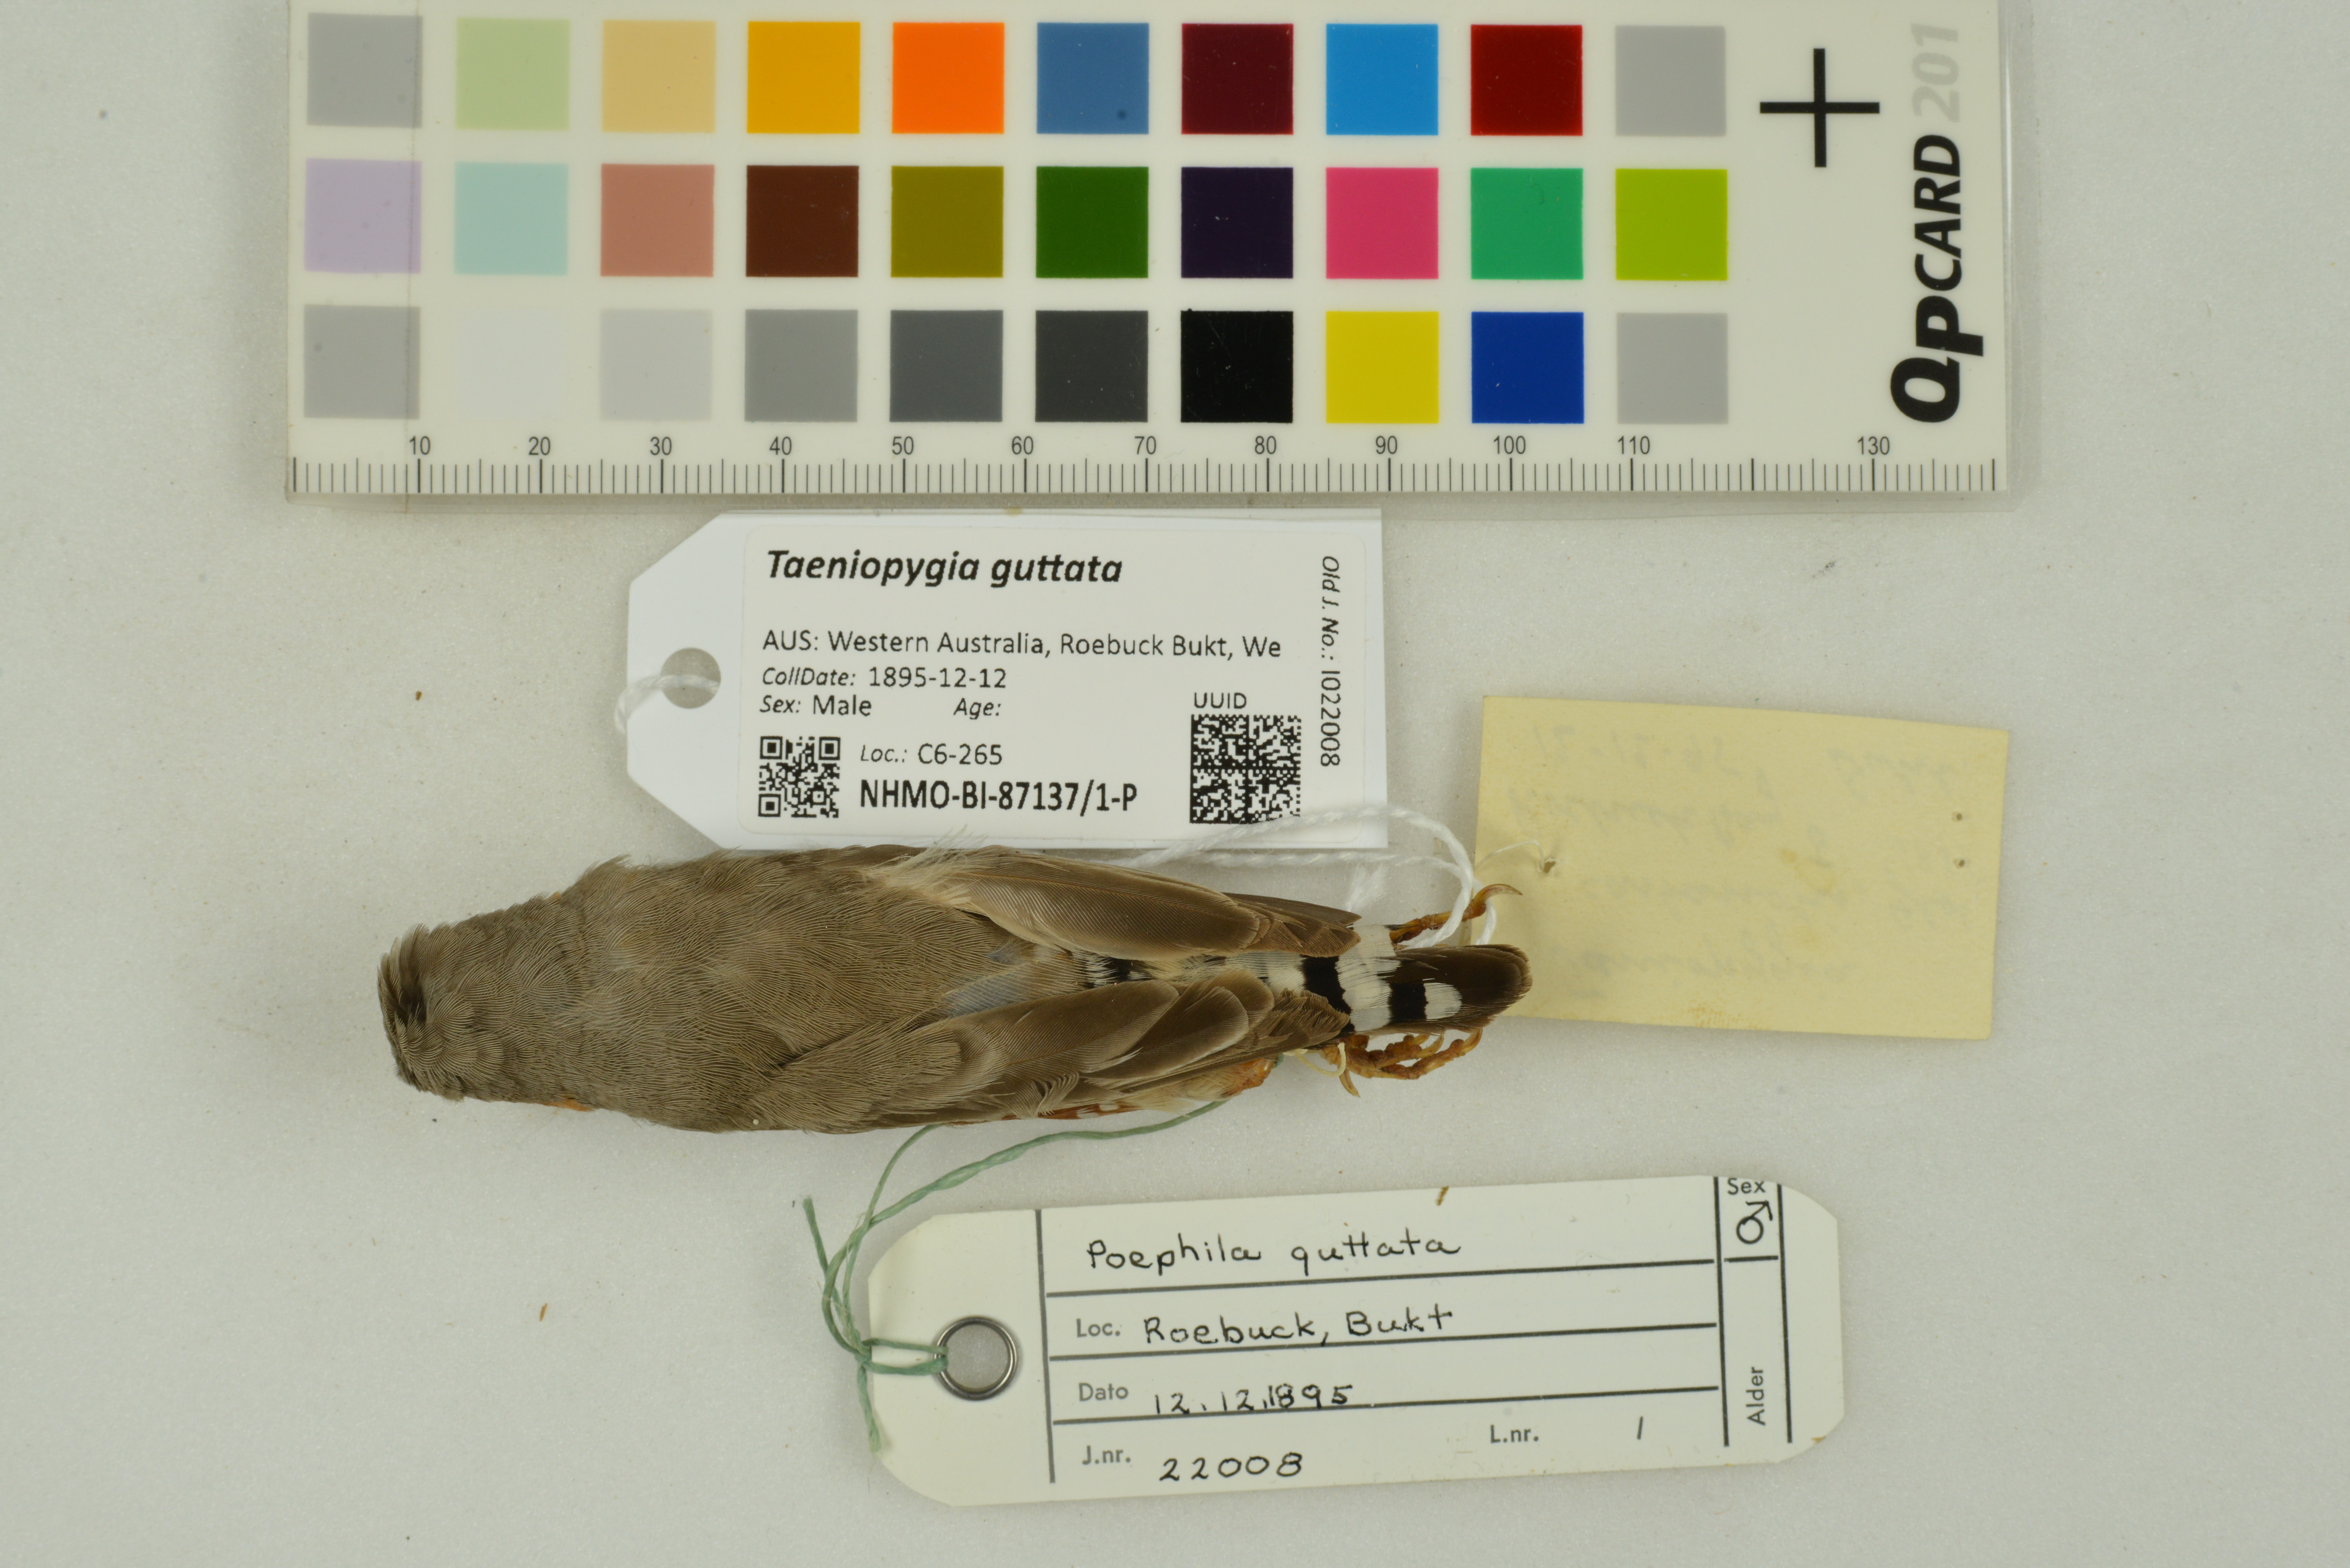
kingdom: Animalia
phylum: Chordata
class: Aves
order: Passeriformes
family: Estrildidae
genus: Taeniopygia
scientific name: Taeniopygia guttata
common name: Zebra finch
